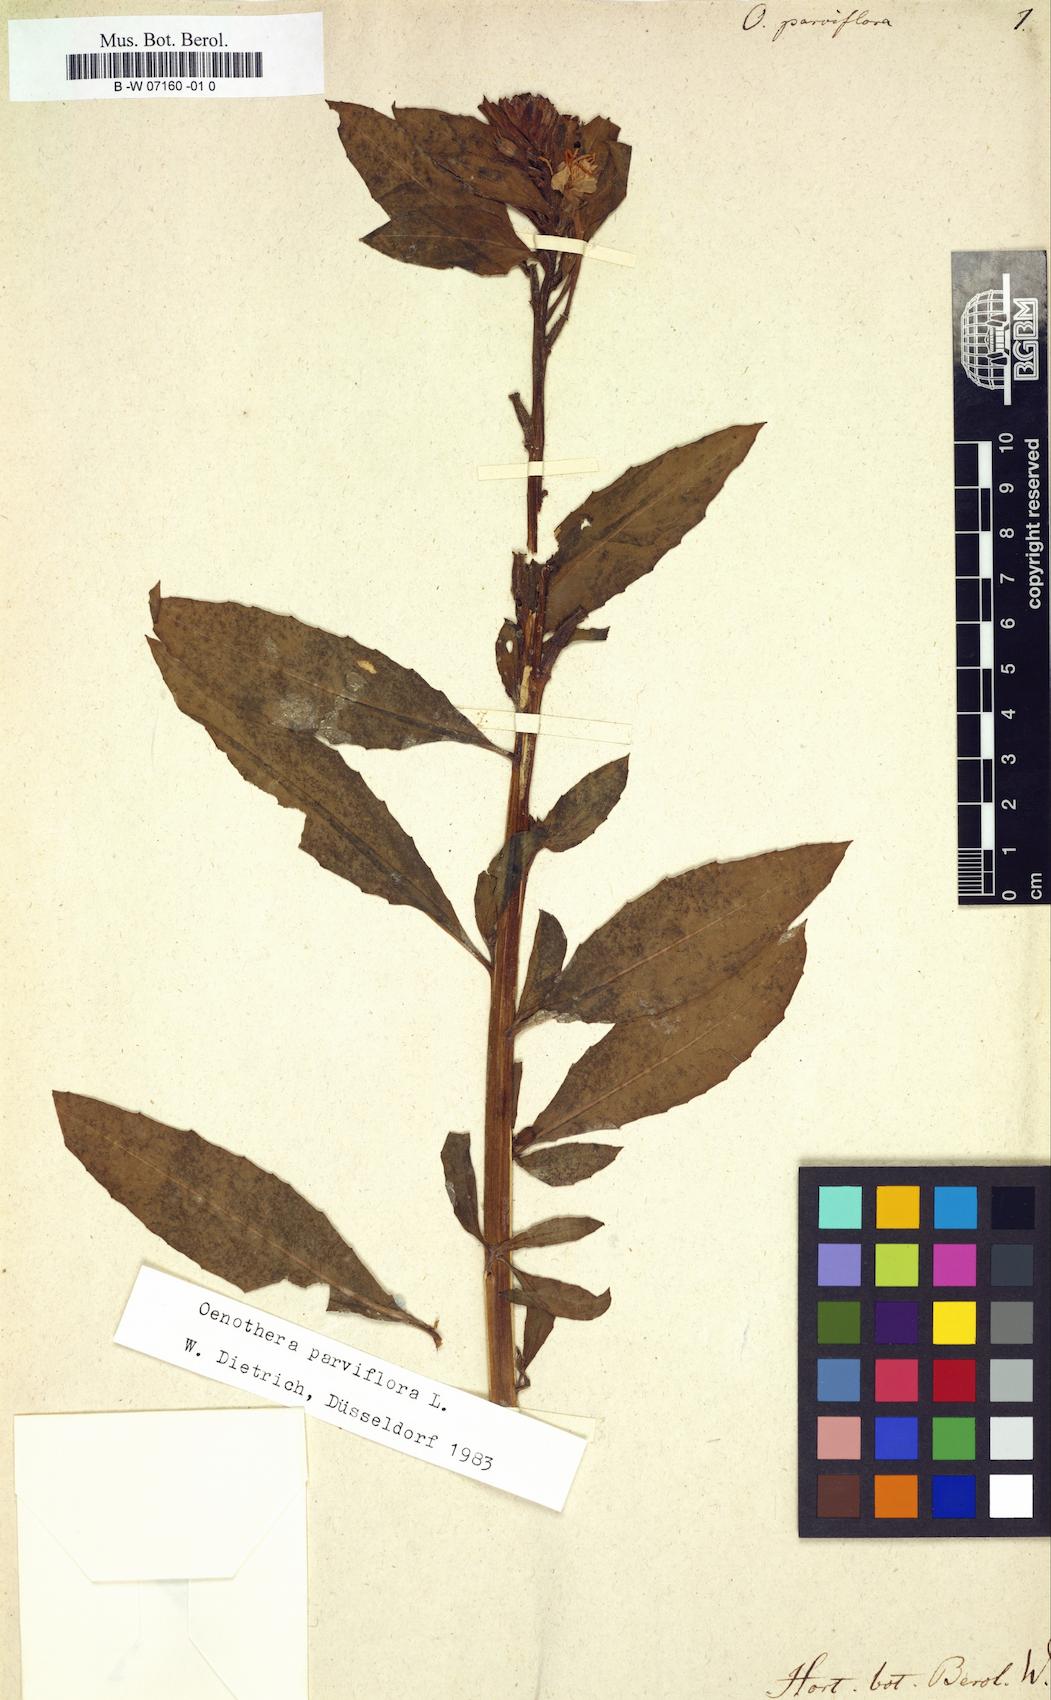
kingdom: Plantae
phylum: Tracheophyta
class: Magnoliopsida
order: Myrtales
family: Onagraceae
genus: Oenothera
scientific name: Oenothera parviflora
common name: Least evening-primrose
